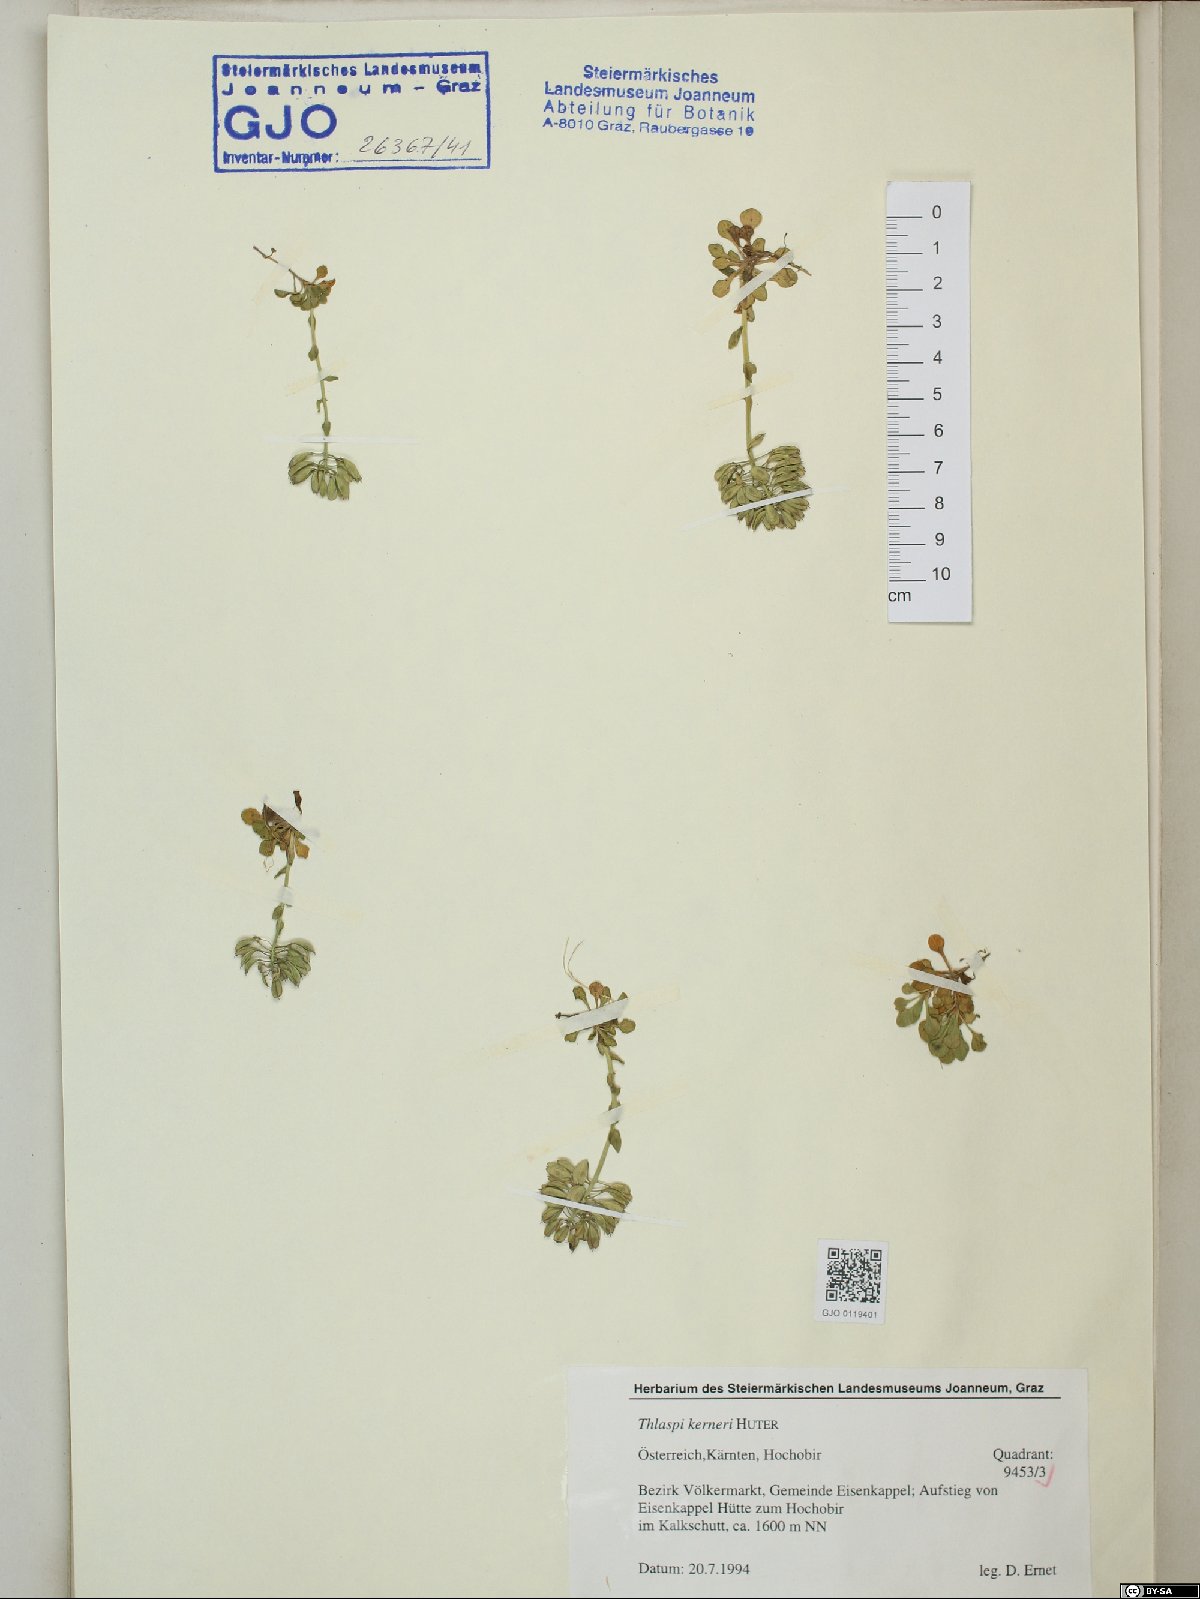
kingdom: Plantae
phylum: Tracheophyta
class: Magnoliopsida
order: Brassicales
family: Brassicaceae
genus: Noccaea
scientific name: Noccaea minima
